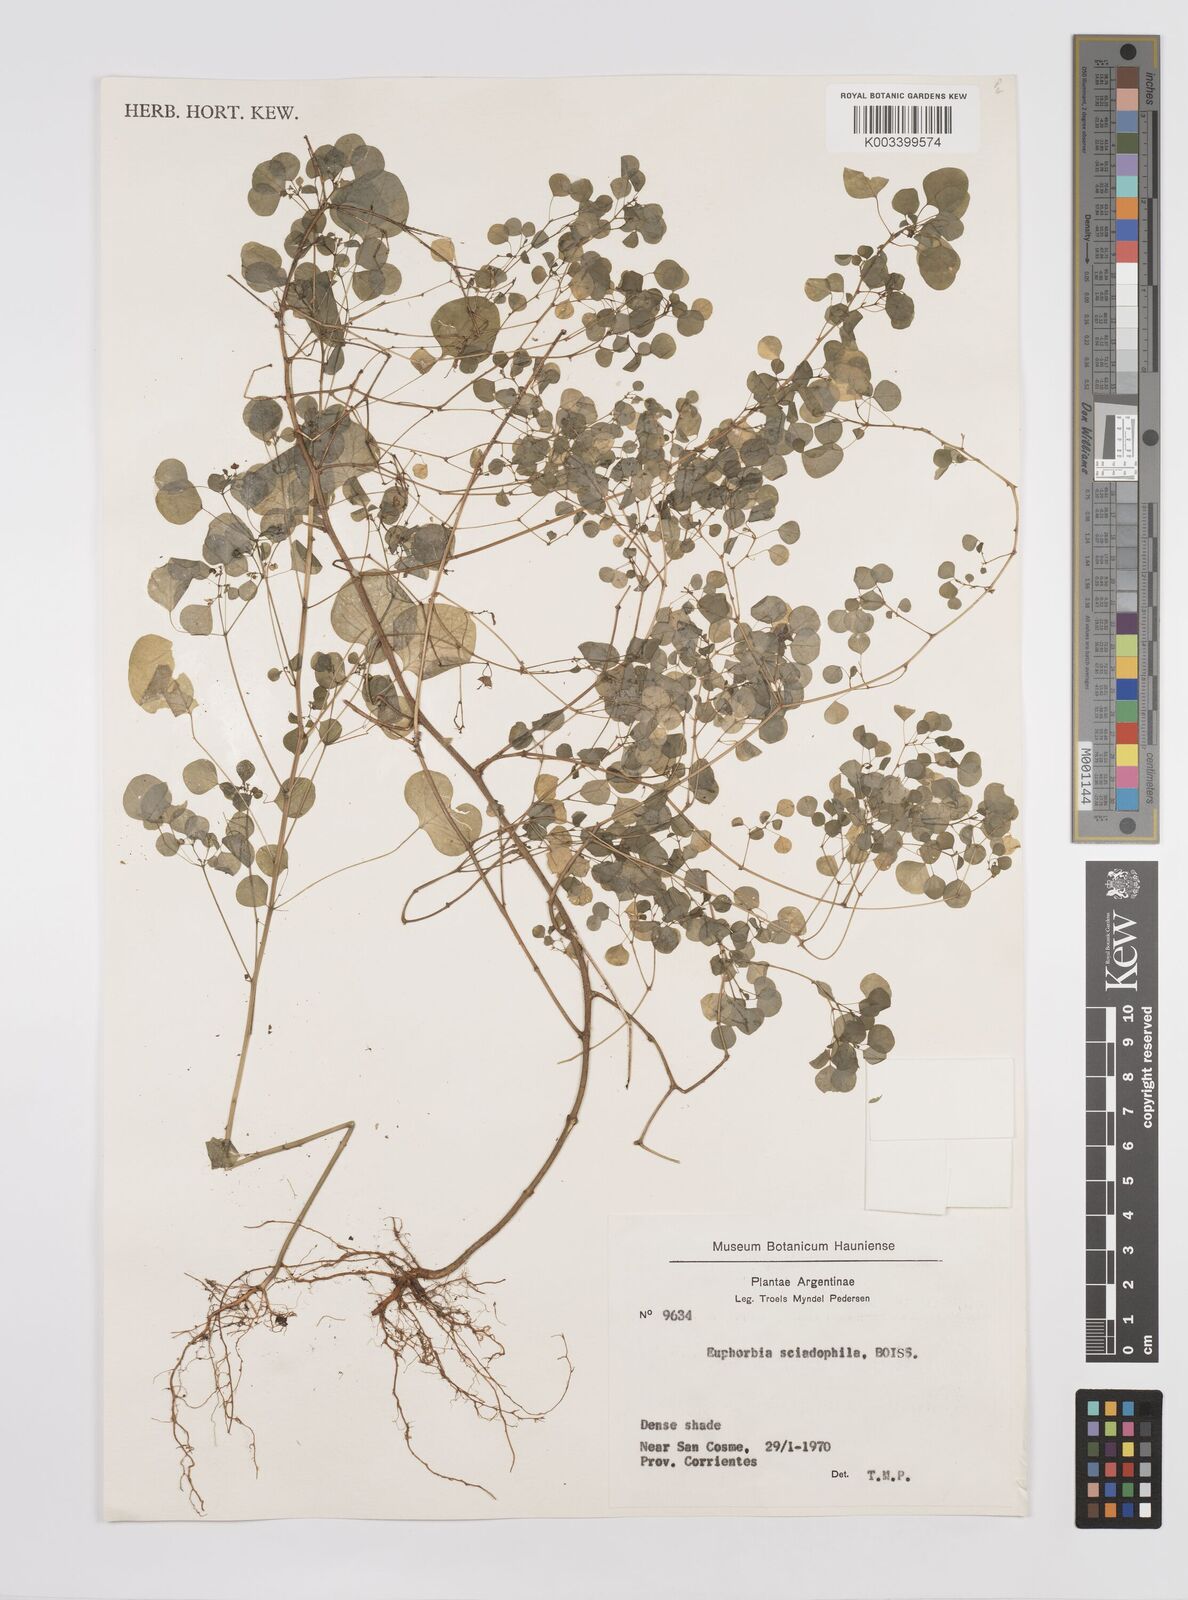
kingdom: Plantae
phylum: Tracheophyta
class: Magnoliopsida
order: Malpighiales
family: Euphorbiaceae
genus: Euphorbia
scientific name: Euphorbia sciadophila
